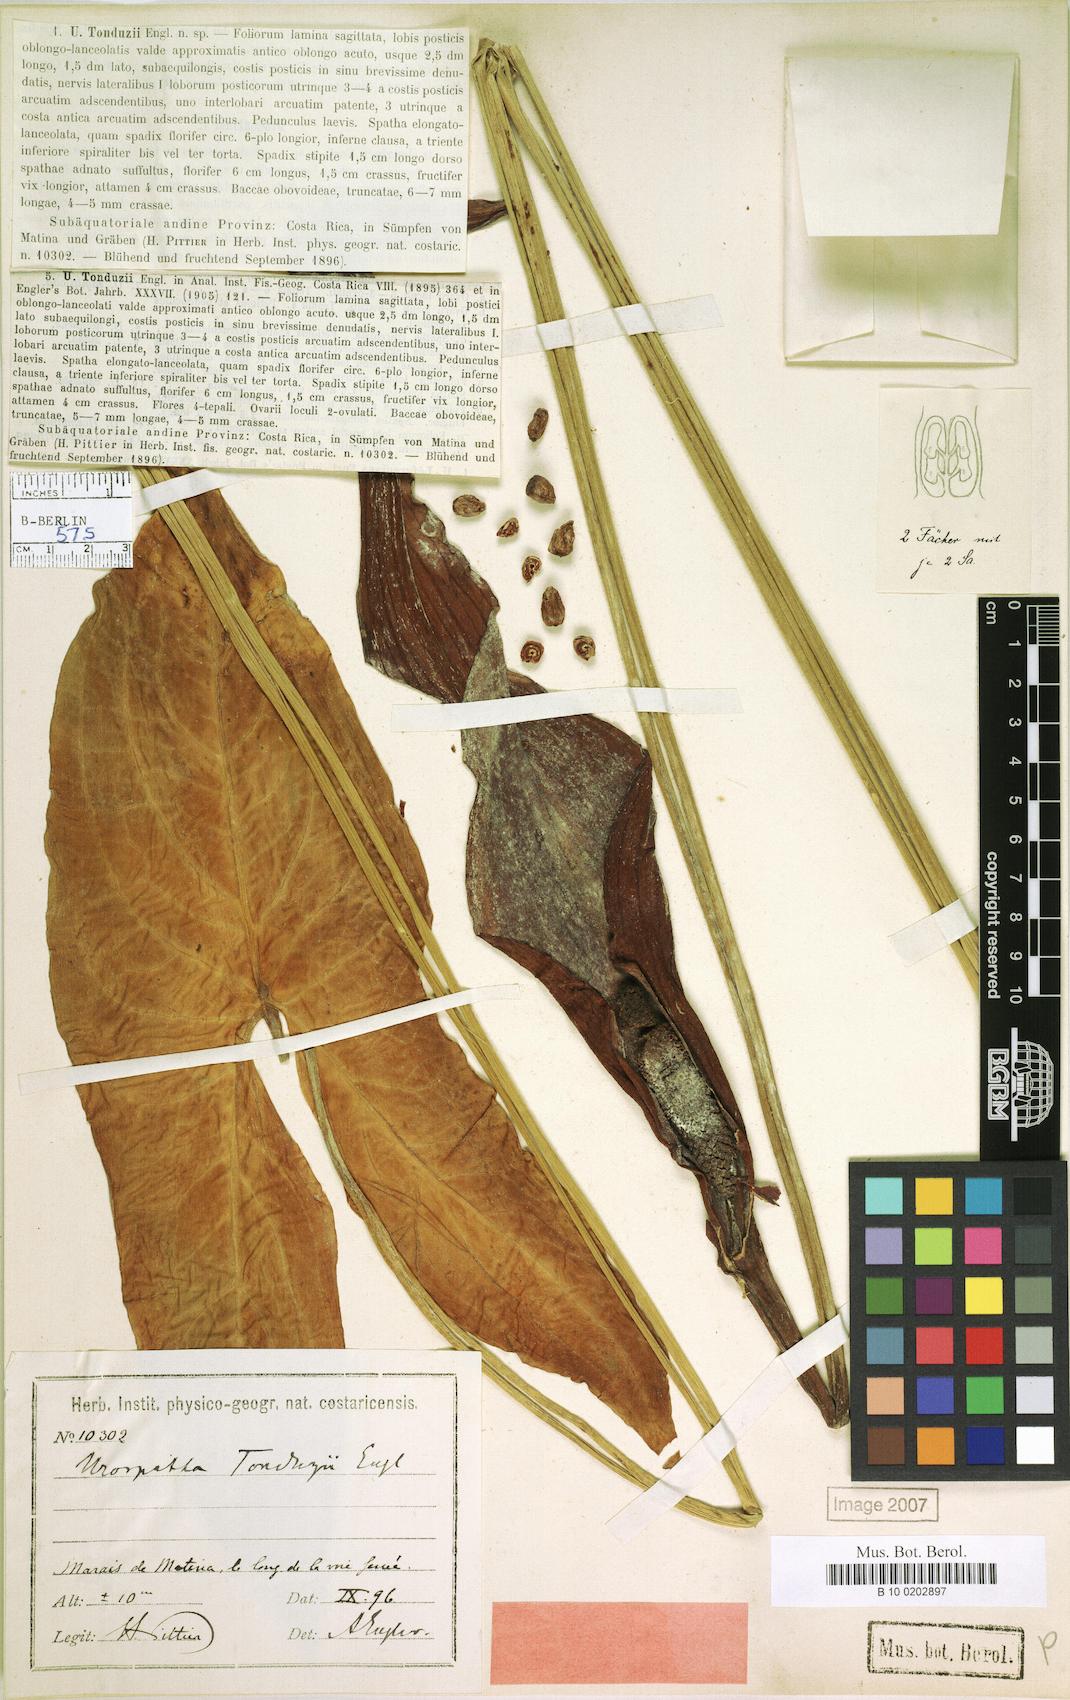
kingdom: Plantae
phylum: Tracheophyta
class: Liliopsida
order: Alismatales
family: Araceae
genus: Urospatha
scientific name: Urospatha grandis
